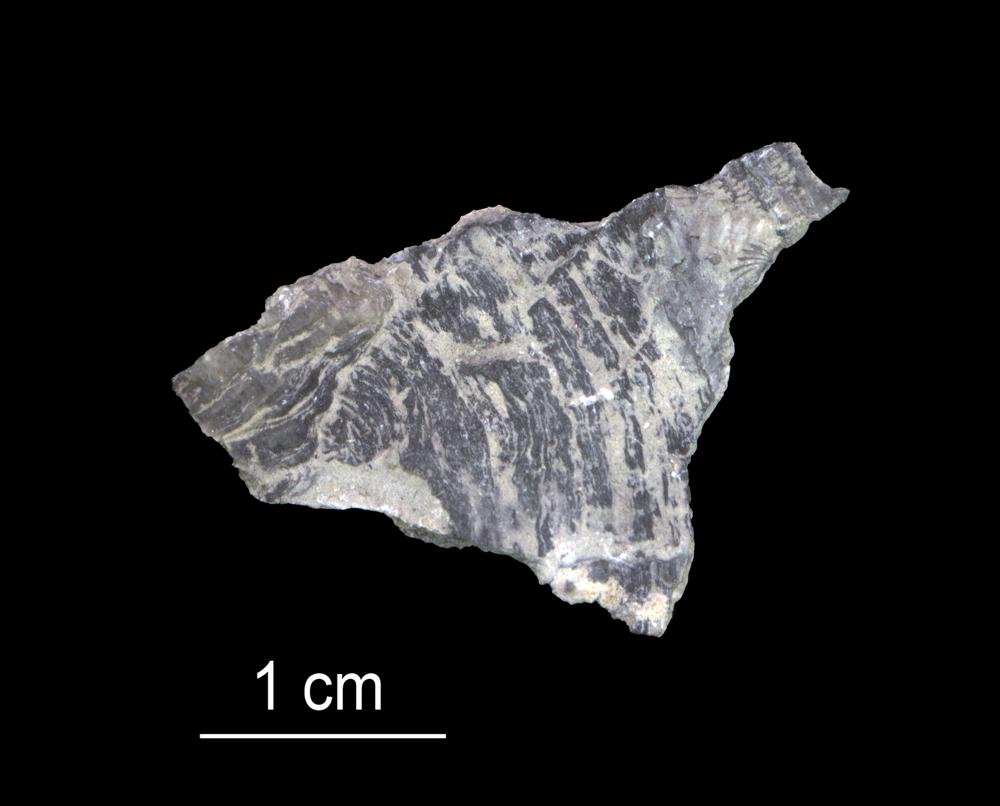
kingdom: Animalia
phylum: Bryozoa
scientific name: Bryozoa
